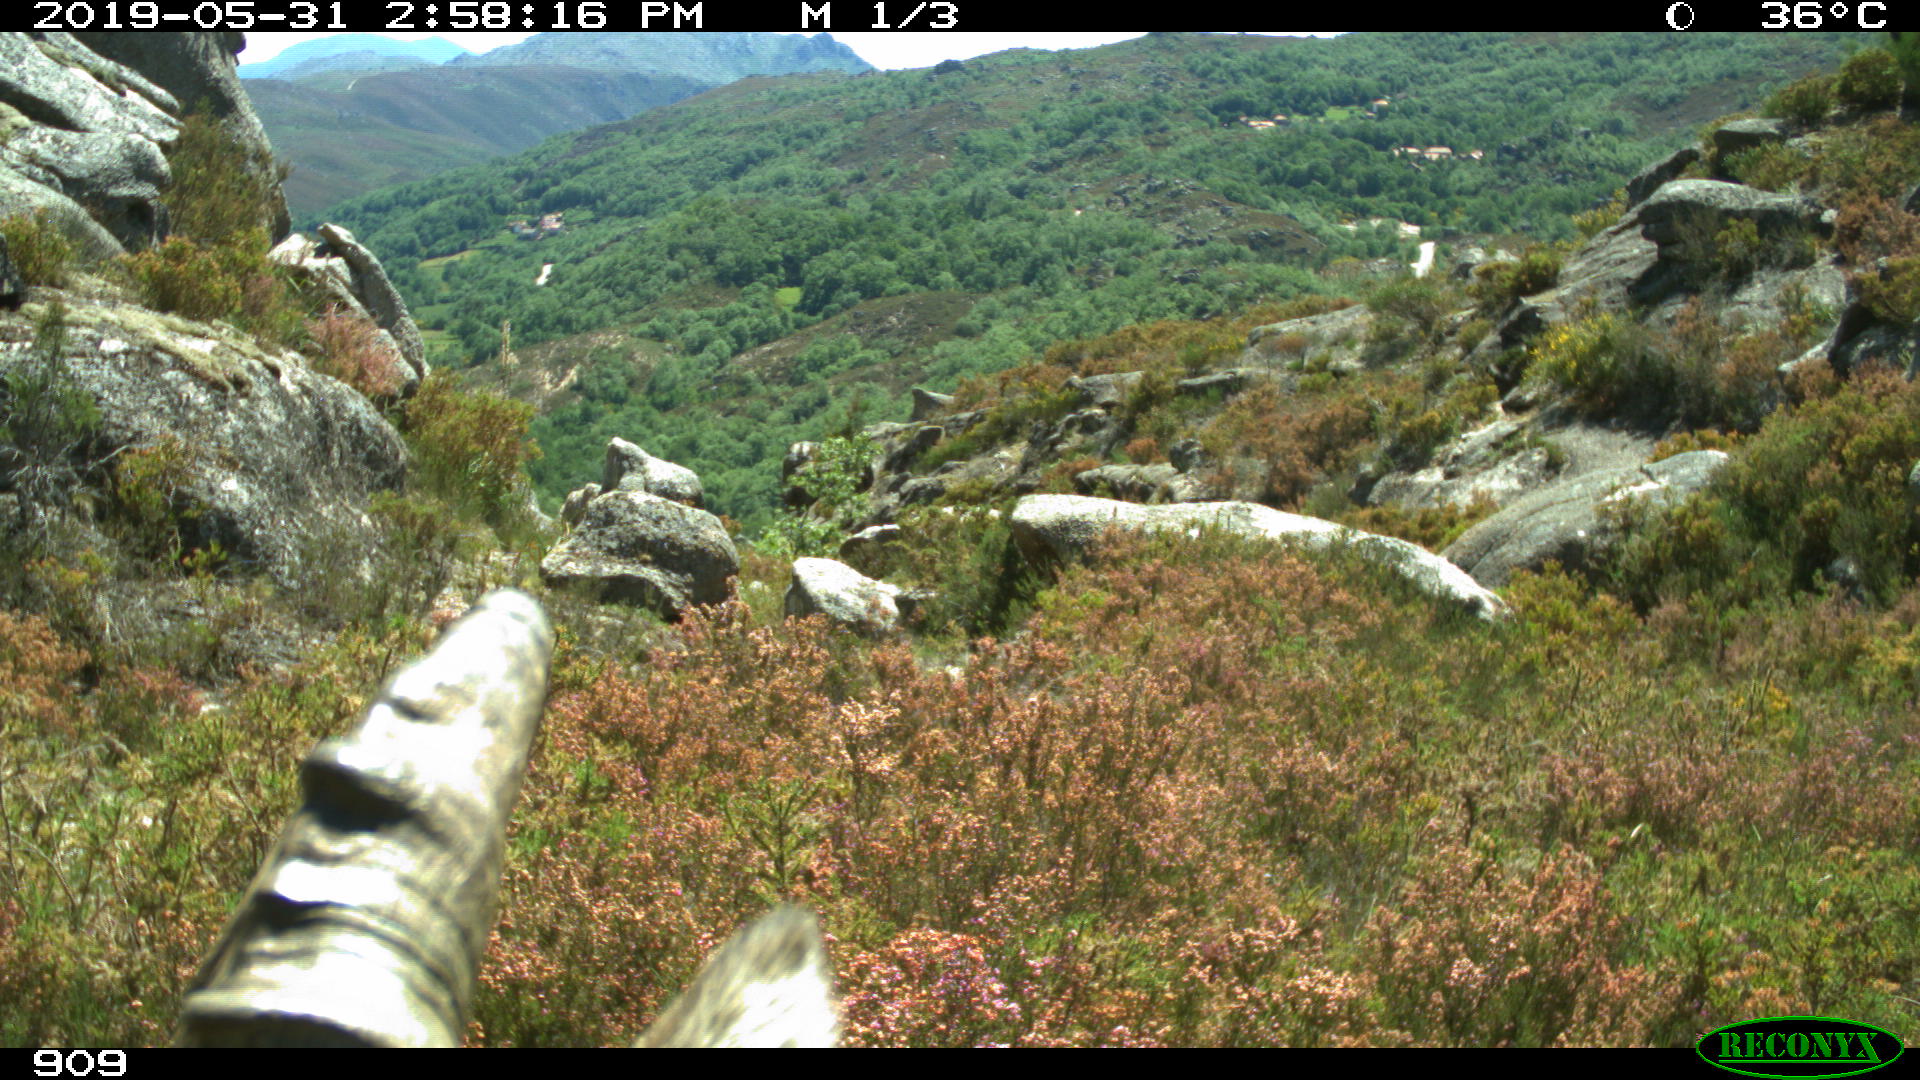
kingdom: Animalia
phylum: Chordata
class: Mammalia
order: Artiodactyla
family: Bovidae
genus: Capra
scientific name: Capra pyrenaica
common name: Spanish ibex
